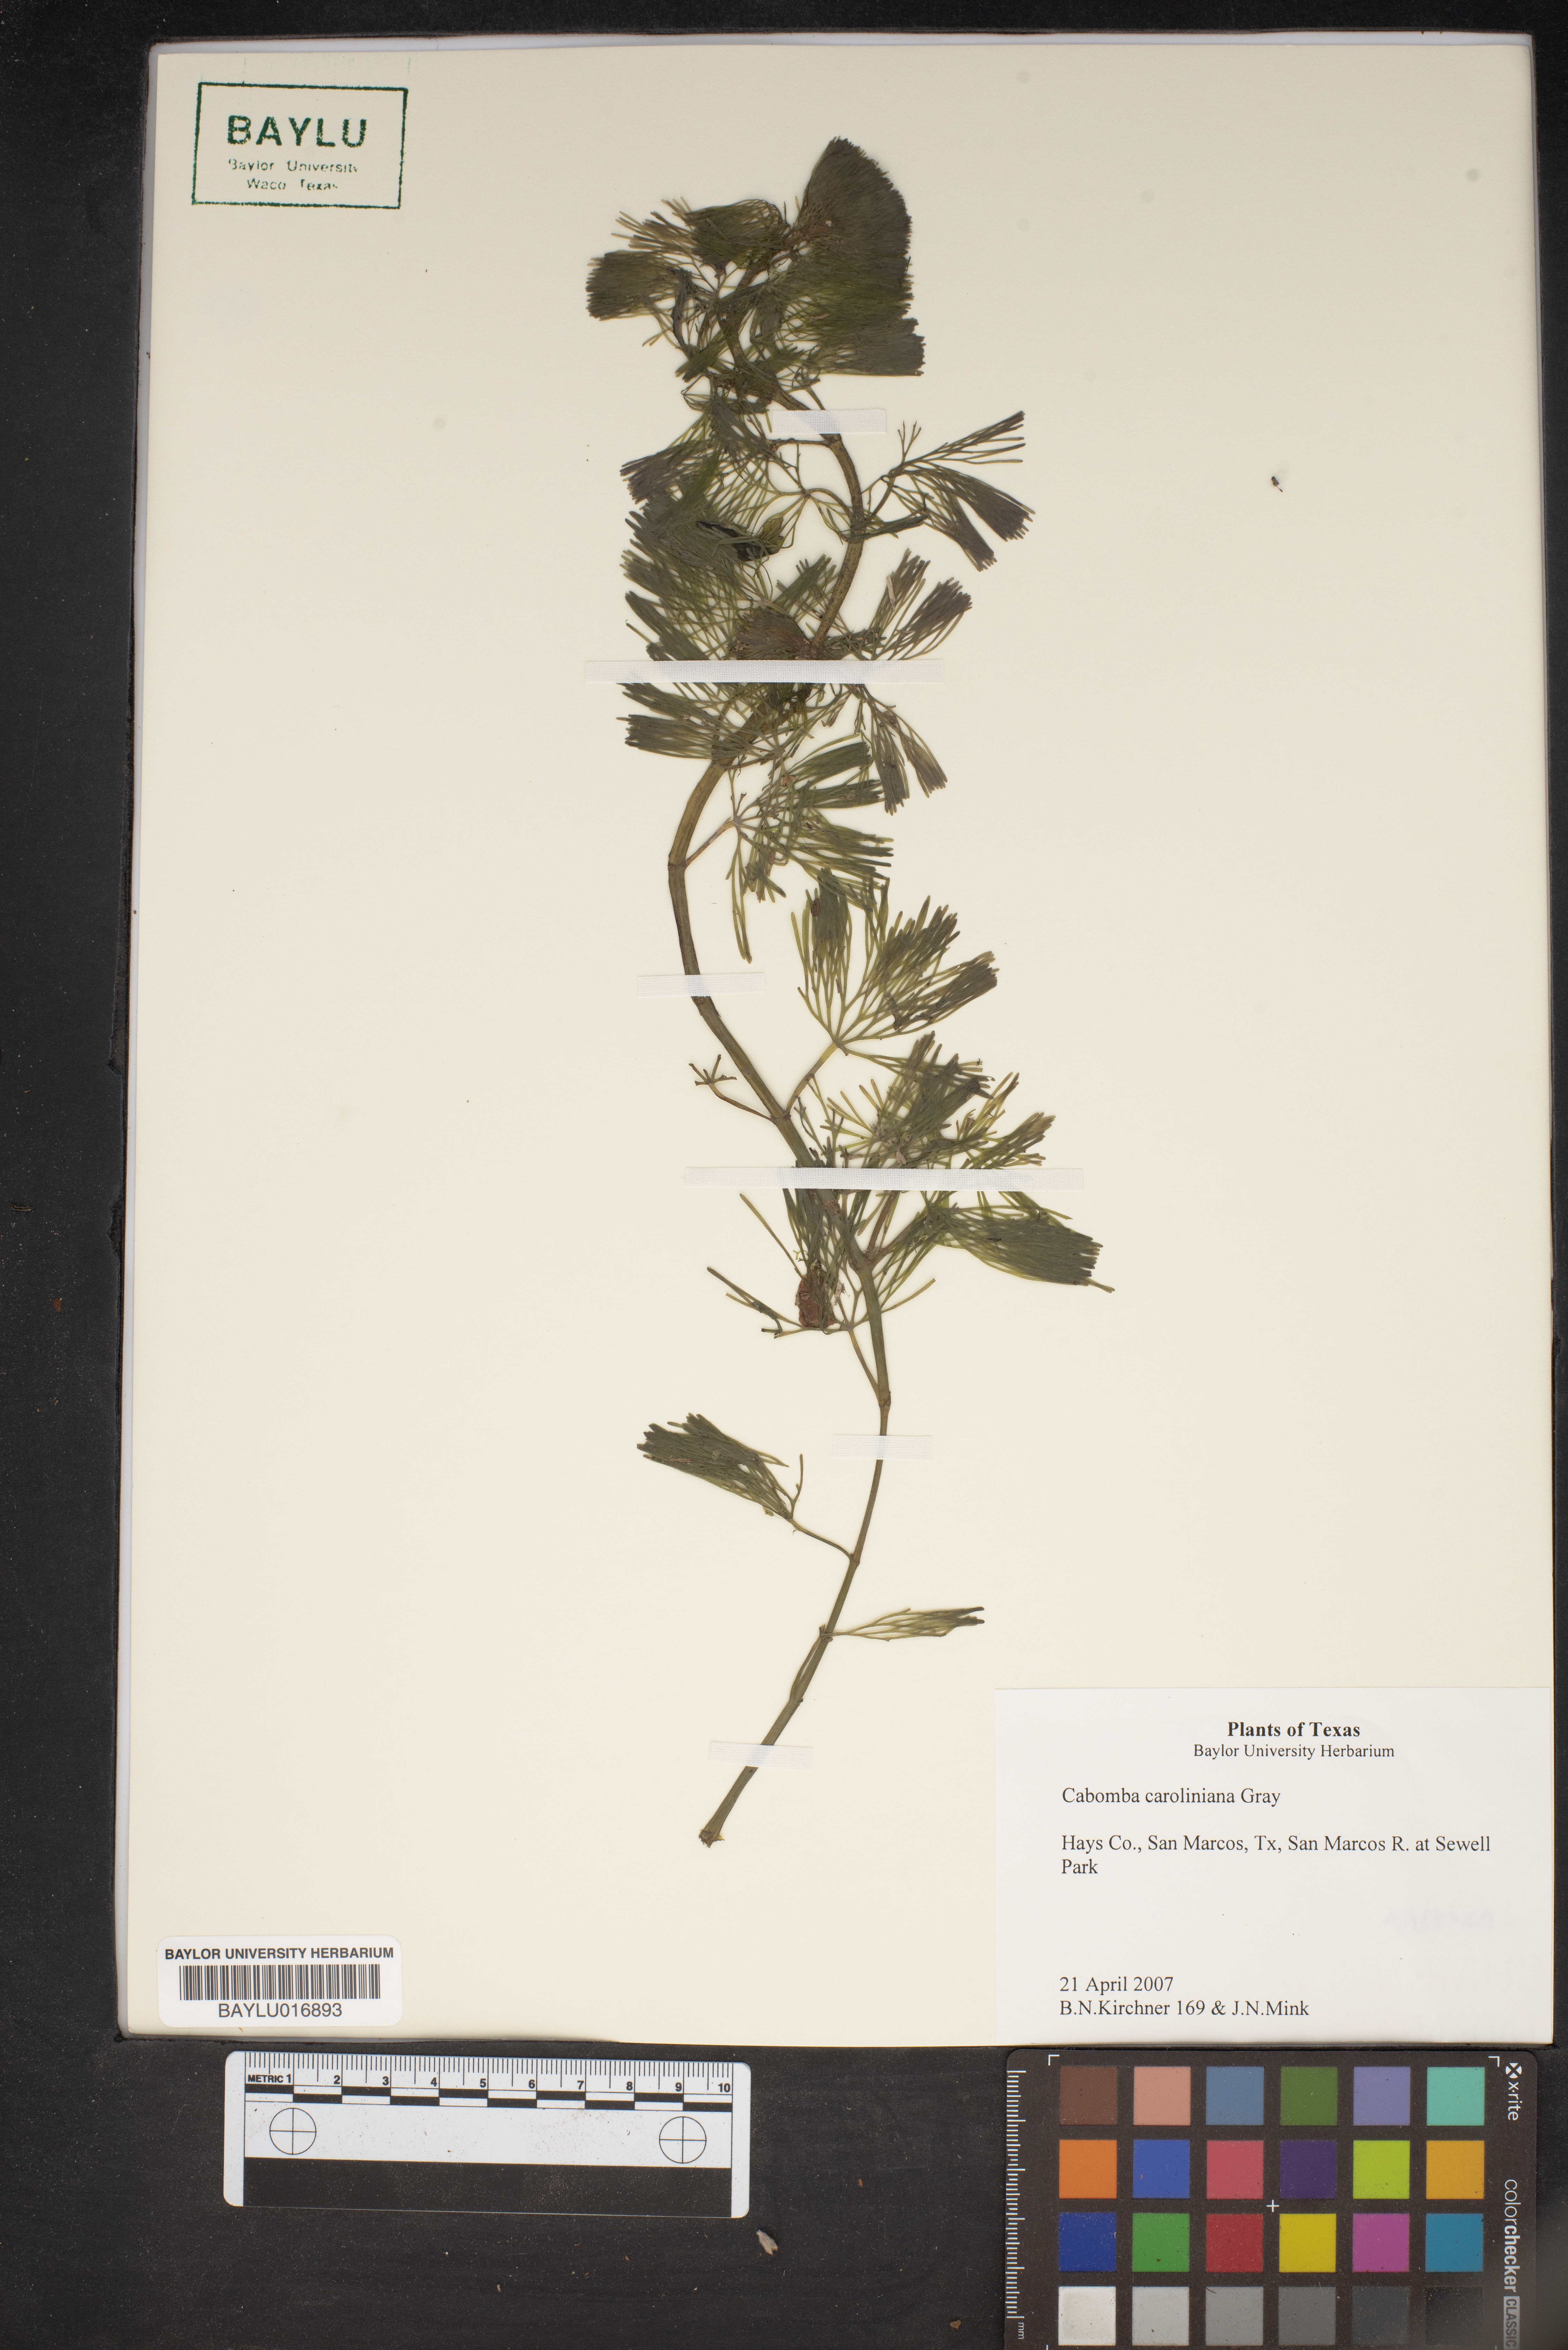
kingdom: Plantae
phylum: Tracheophyta
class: Magnoliopsida
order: Nymphaeales
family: Cabombaceae
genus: Cabomba
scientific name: Cabomba caroliniana
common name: Fanwort
